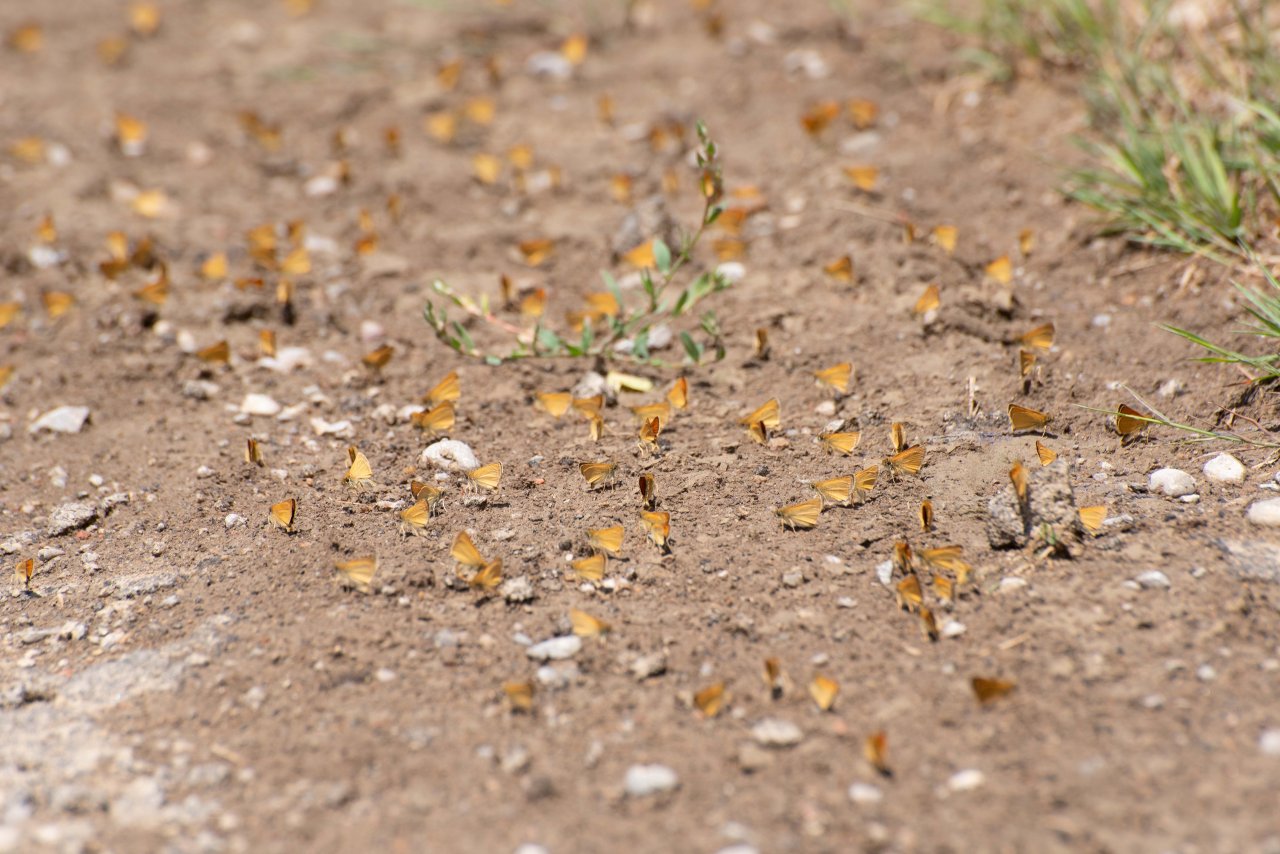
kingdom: Animalia
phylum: Arthropoda
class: Insecta
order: Lepidoptera
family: Hesperiidae
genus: Thymelicus
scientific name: Thymelicus lineola
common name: European Skipper
